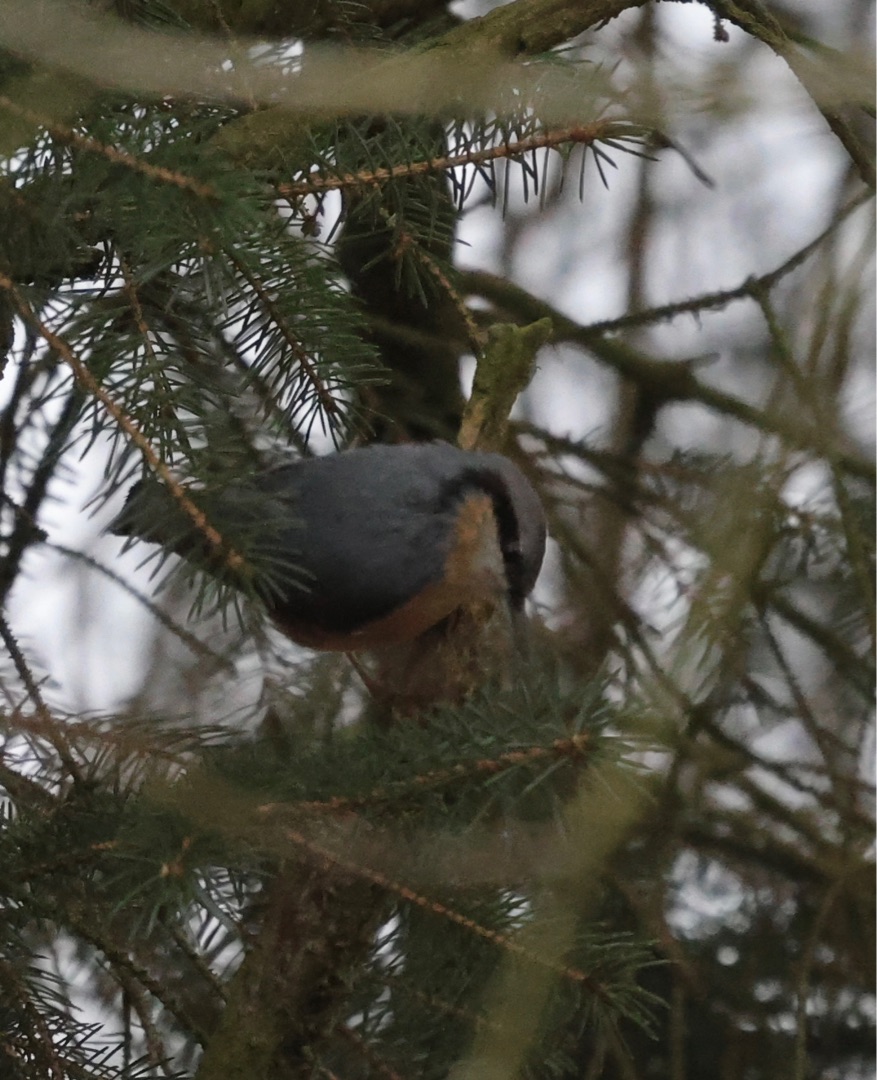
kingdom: Animalia
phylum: Chordata
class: Aves
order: Passeriformes
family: Sittidae
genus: Sitta
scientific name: Sitta europaea
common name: Spætmejse
